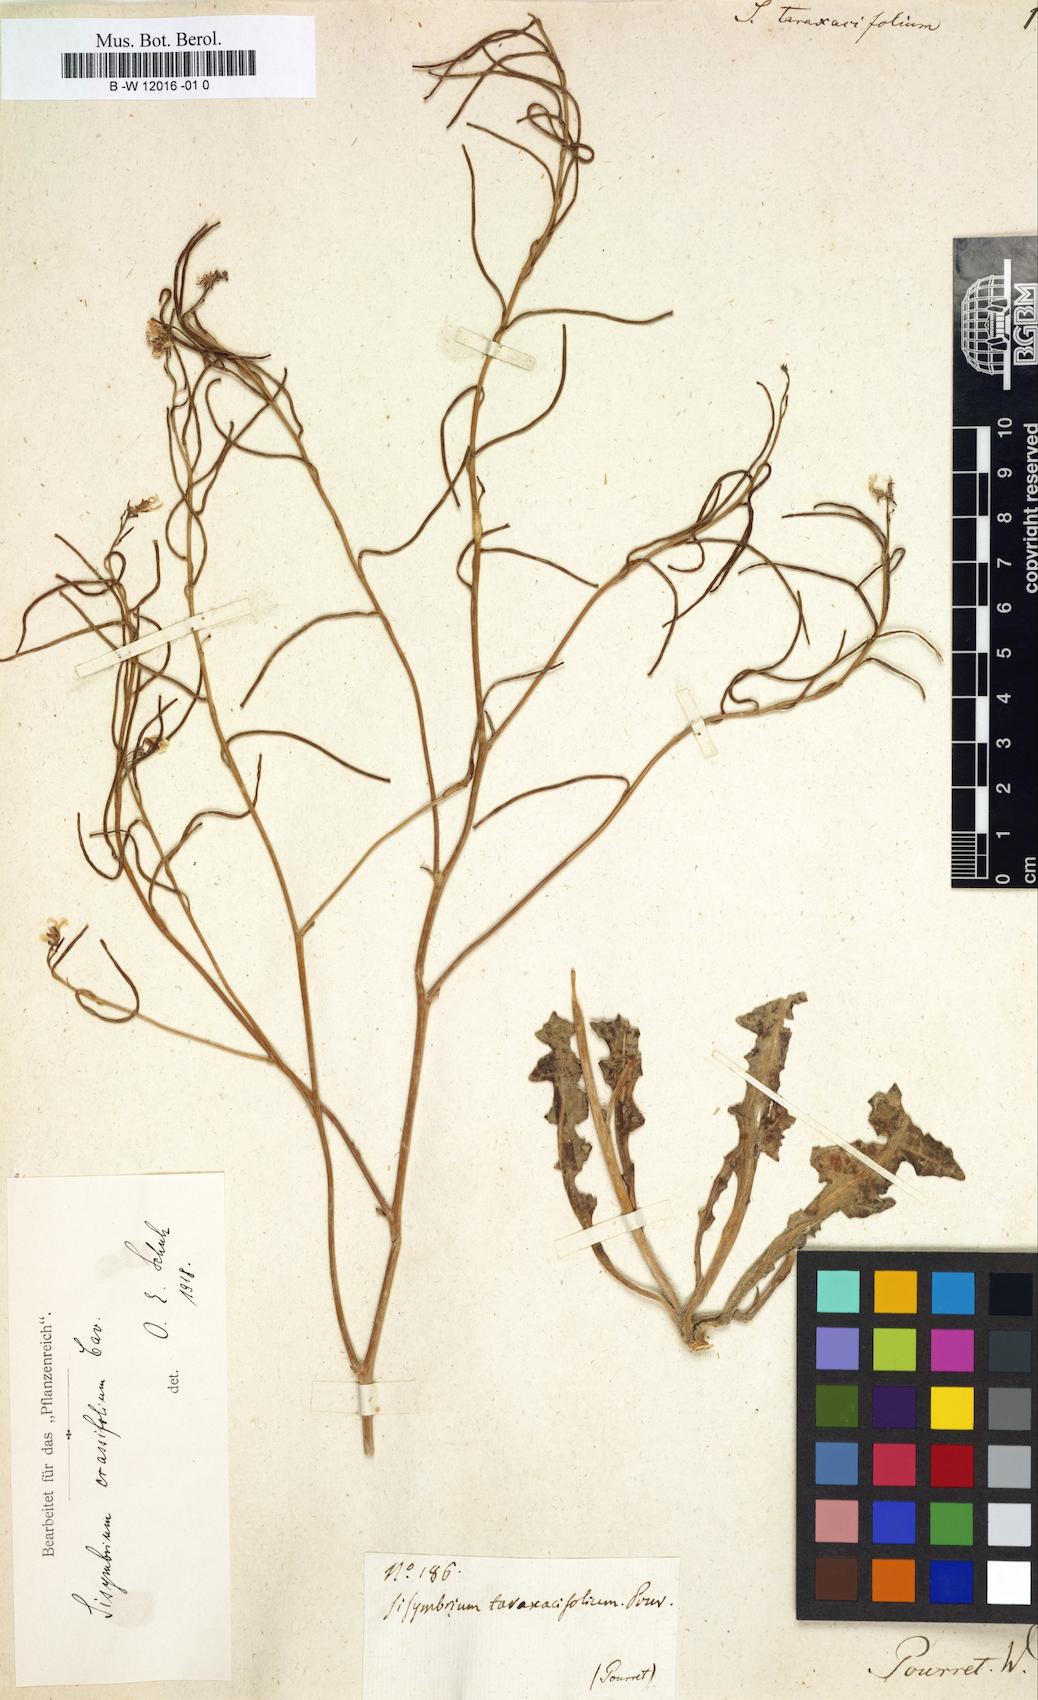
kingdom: Plantae
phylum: Tracheophyta
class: Magnoliopsida
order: Brassicales
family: Brassicaceae
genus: Sisymbrium
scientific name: Sisymbrium hispanicum
